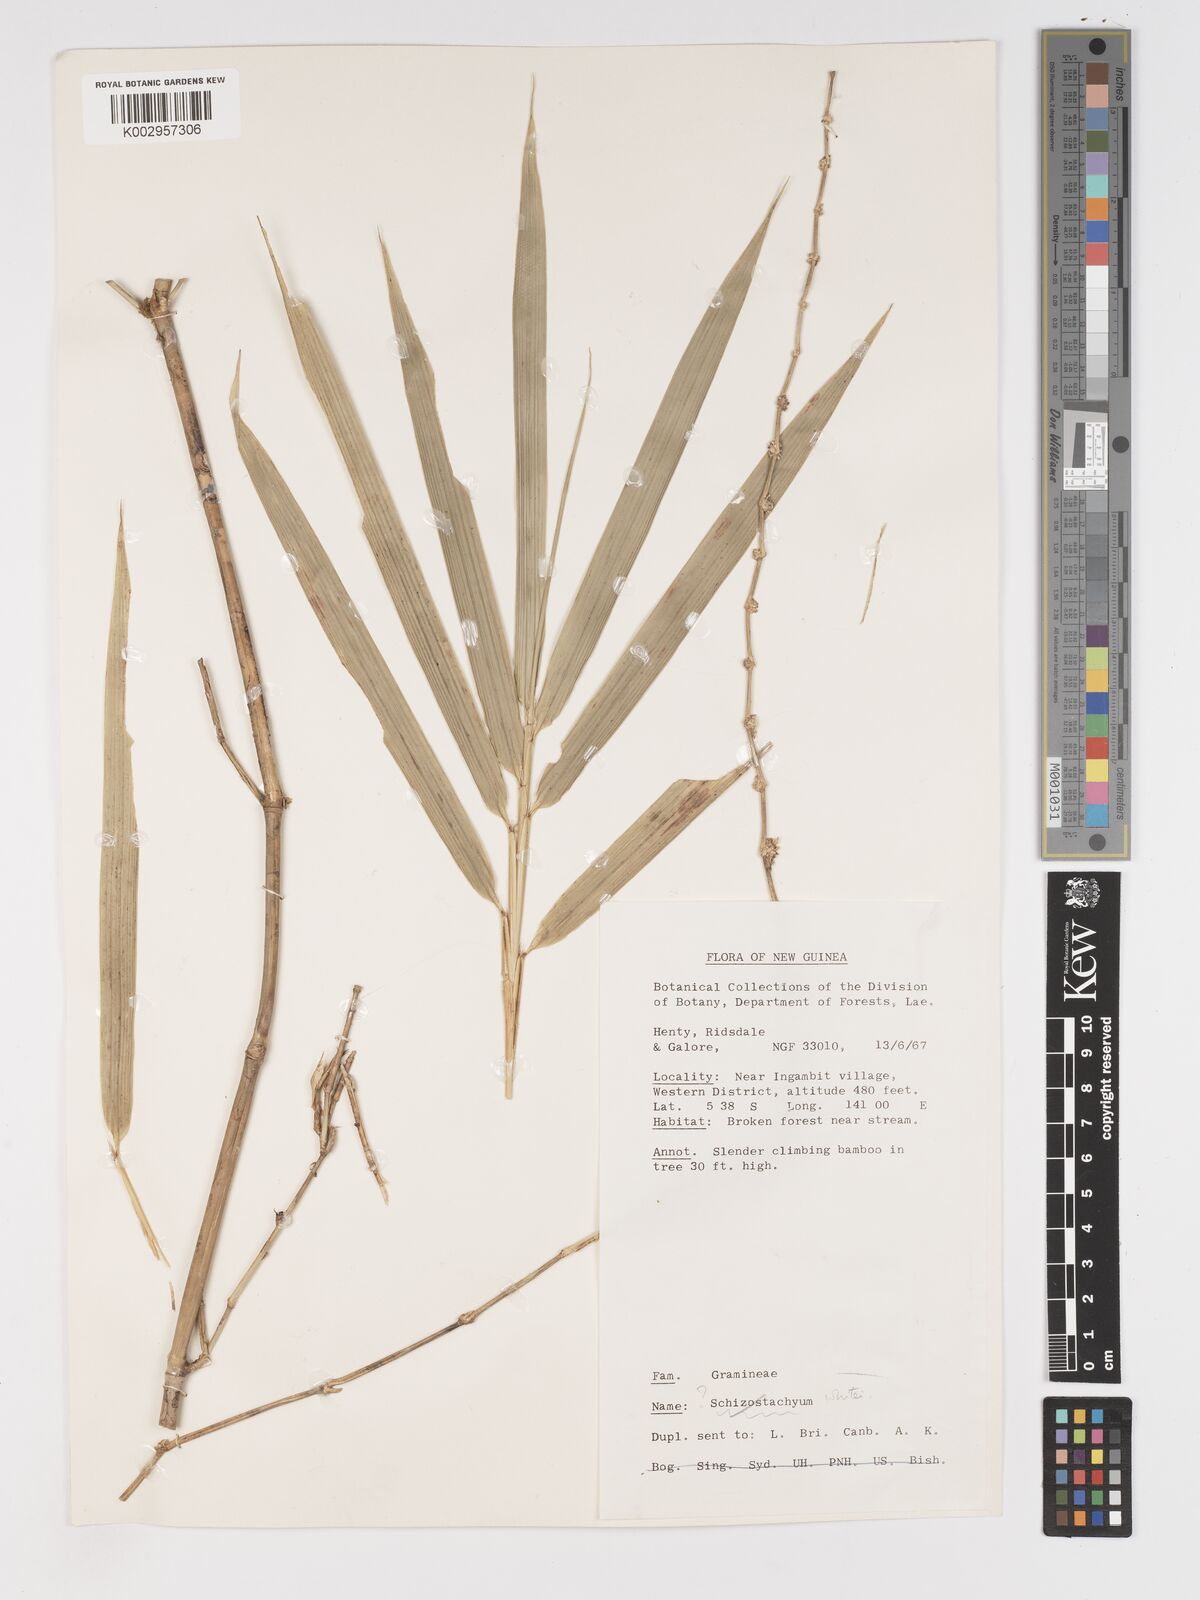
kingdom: Plantae
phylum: Tracheophyta
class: Liliopsida
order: Poales
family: Poaceae
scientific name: Poaceae
